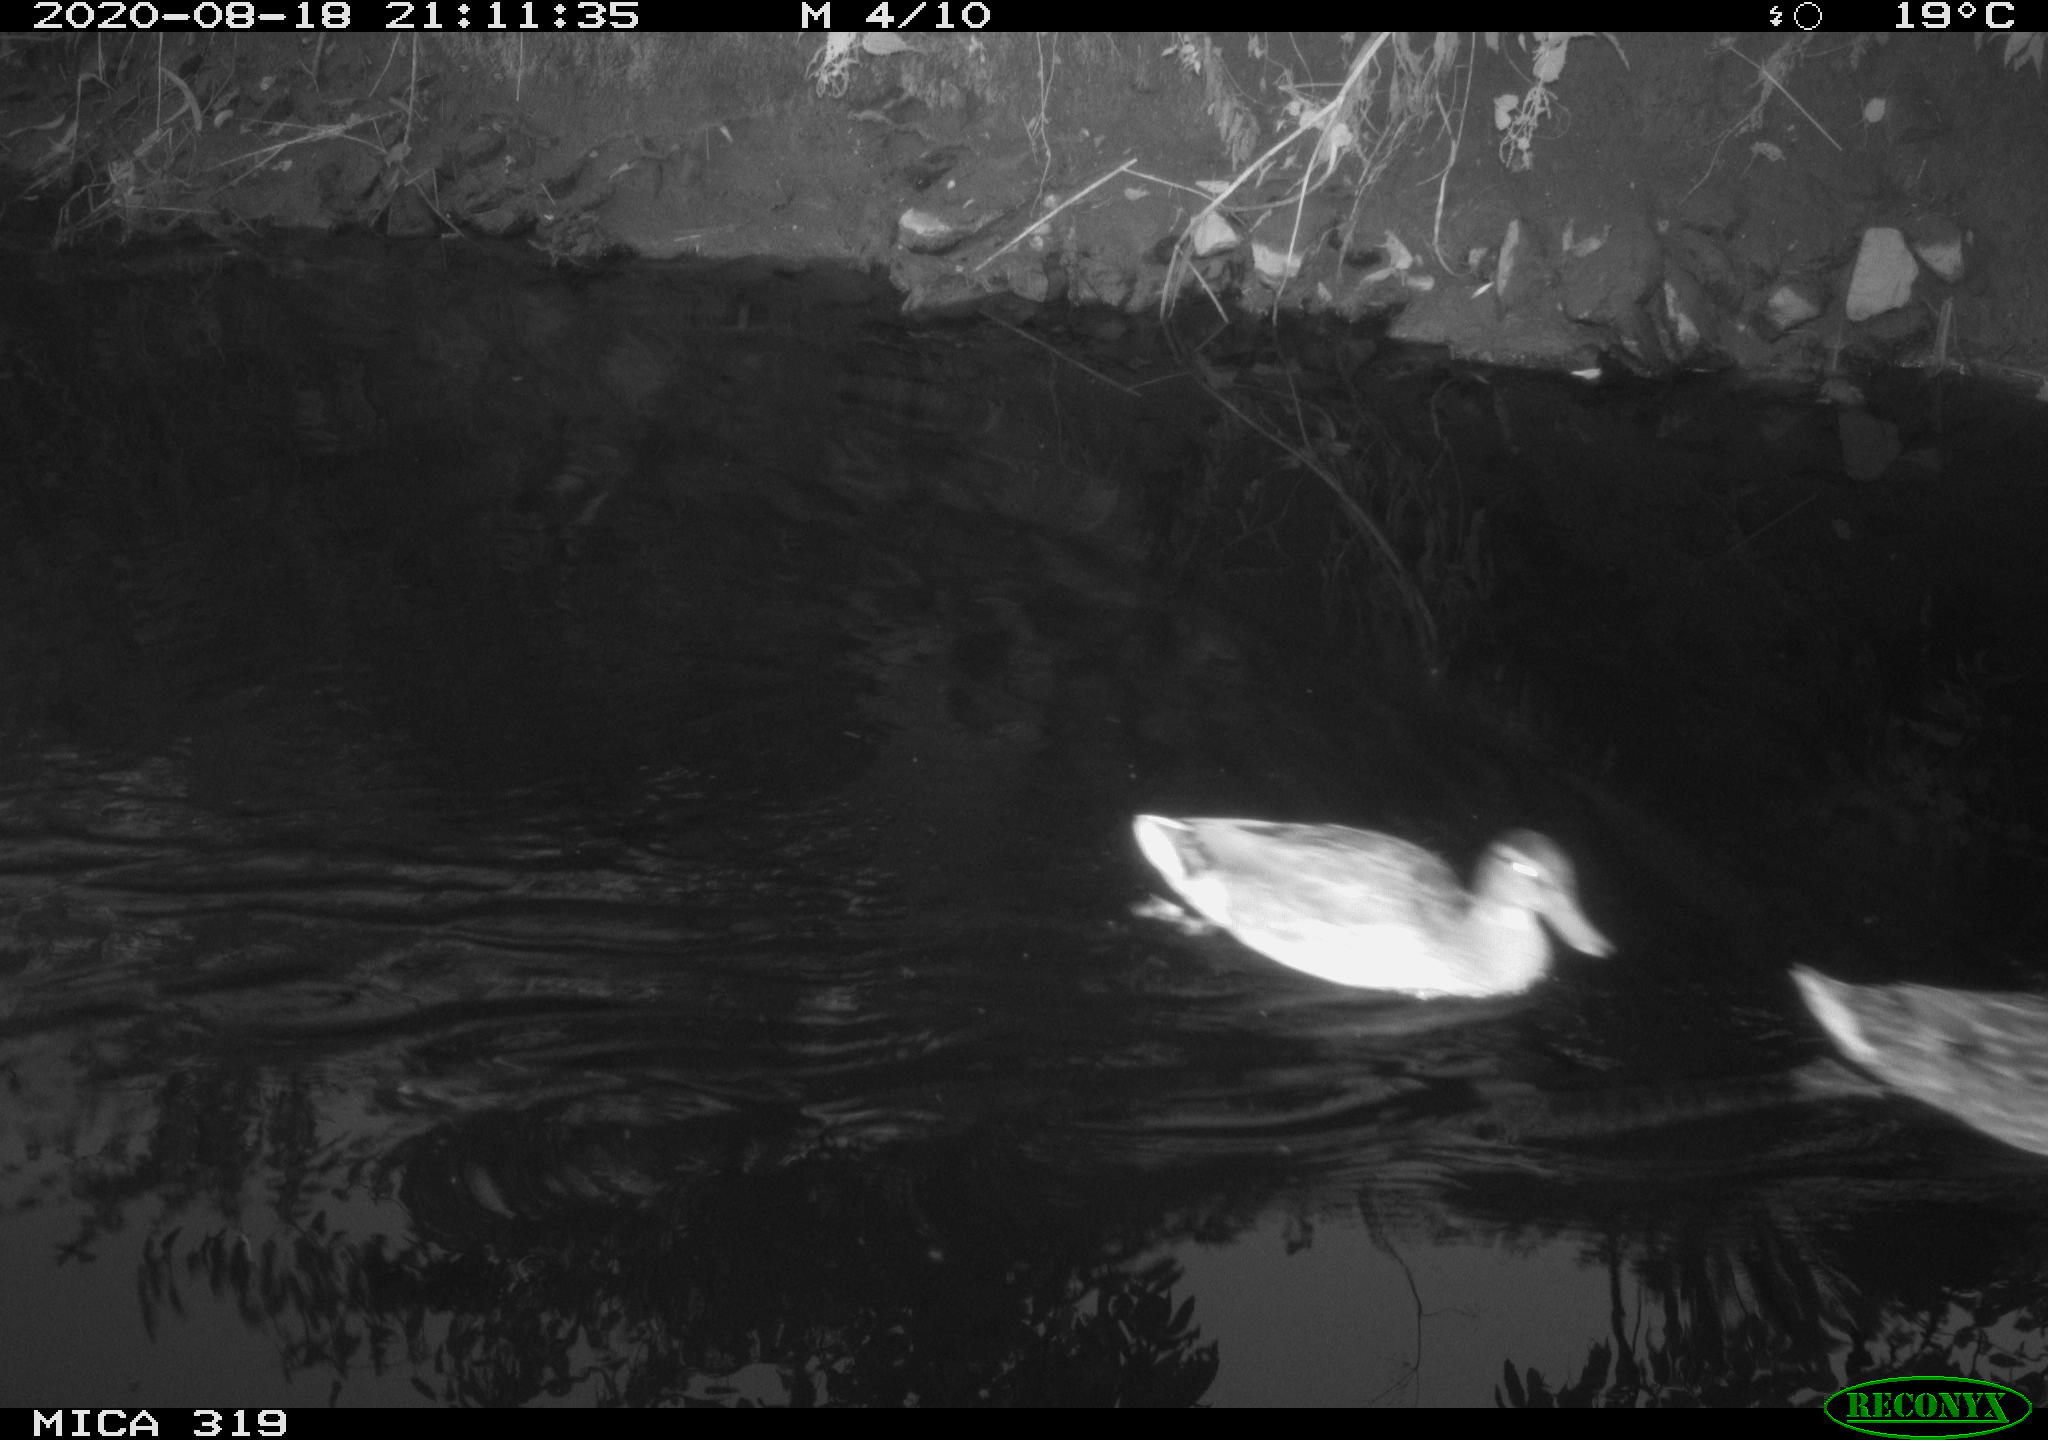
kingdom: Animalia
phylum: Chordata
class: Aves
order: Anseriformes
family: Anatidae
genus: Anas
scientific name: Anas platyrhynchos
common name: Mallard
